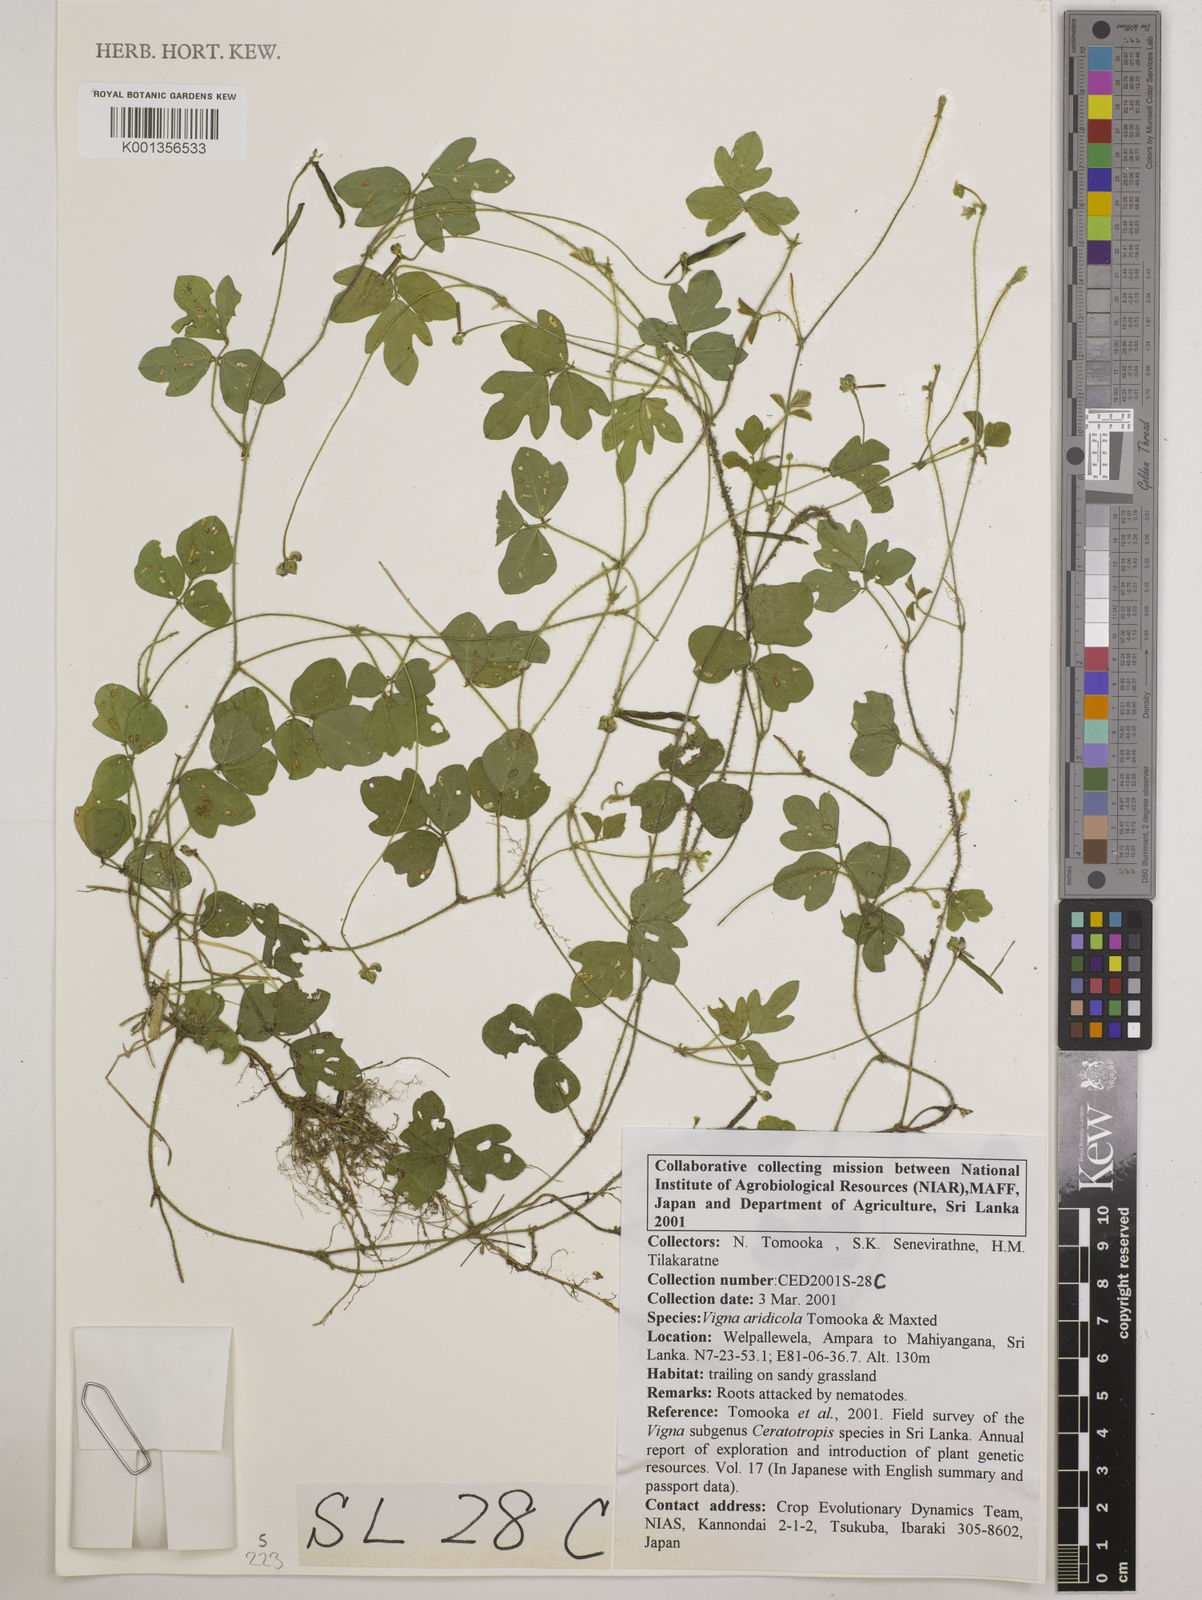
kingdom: Plantae
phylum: Tracheophyta
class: Magnoliopsida
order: Fabales
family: Fabaceae
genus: Vigna
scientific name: Vigna
